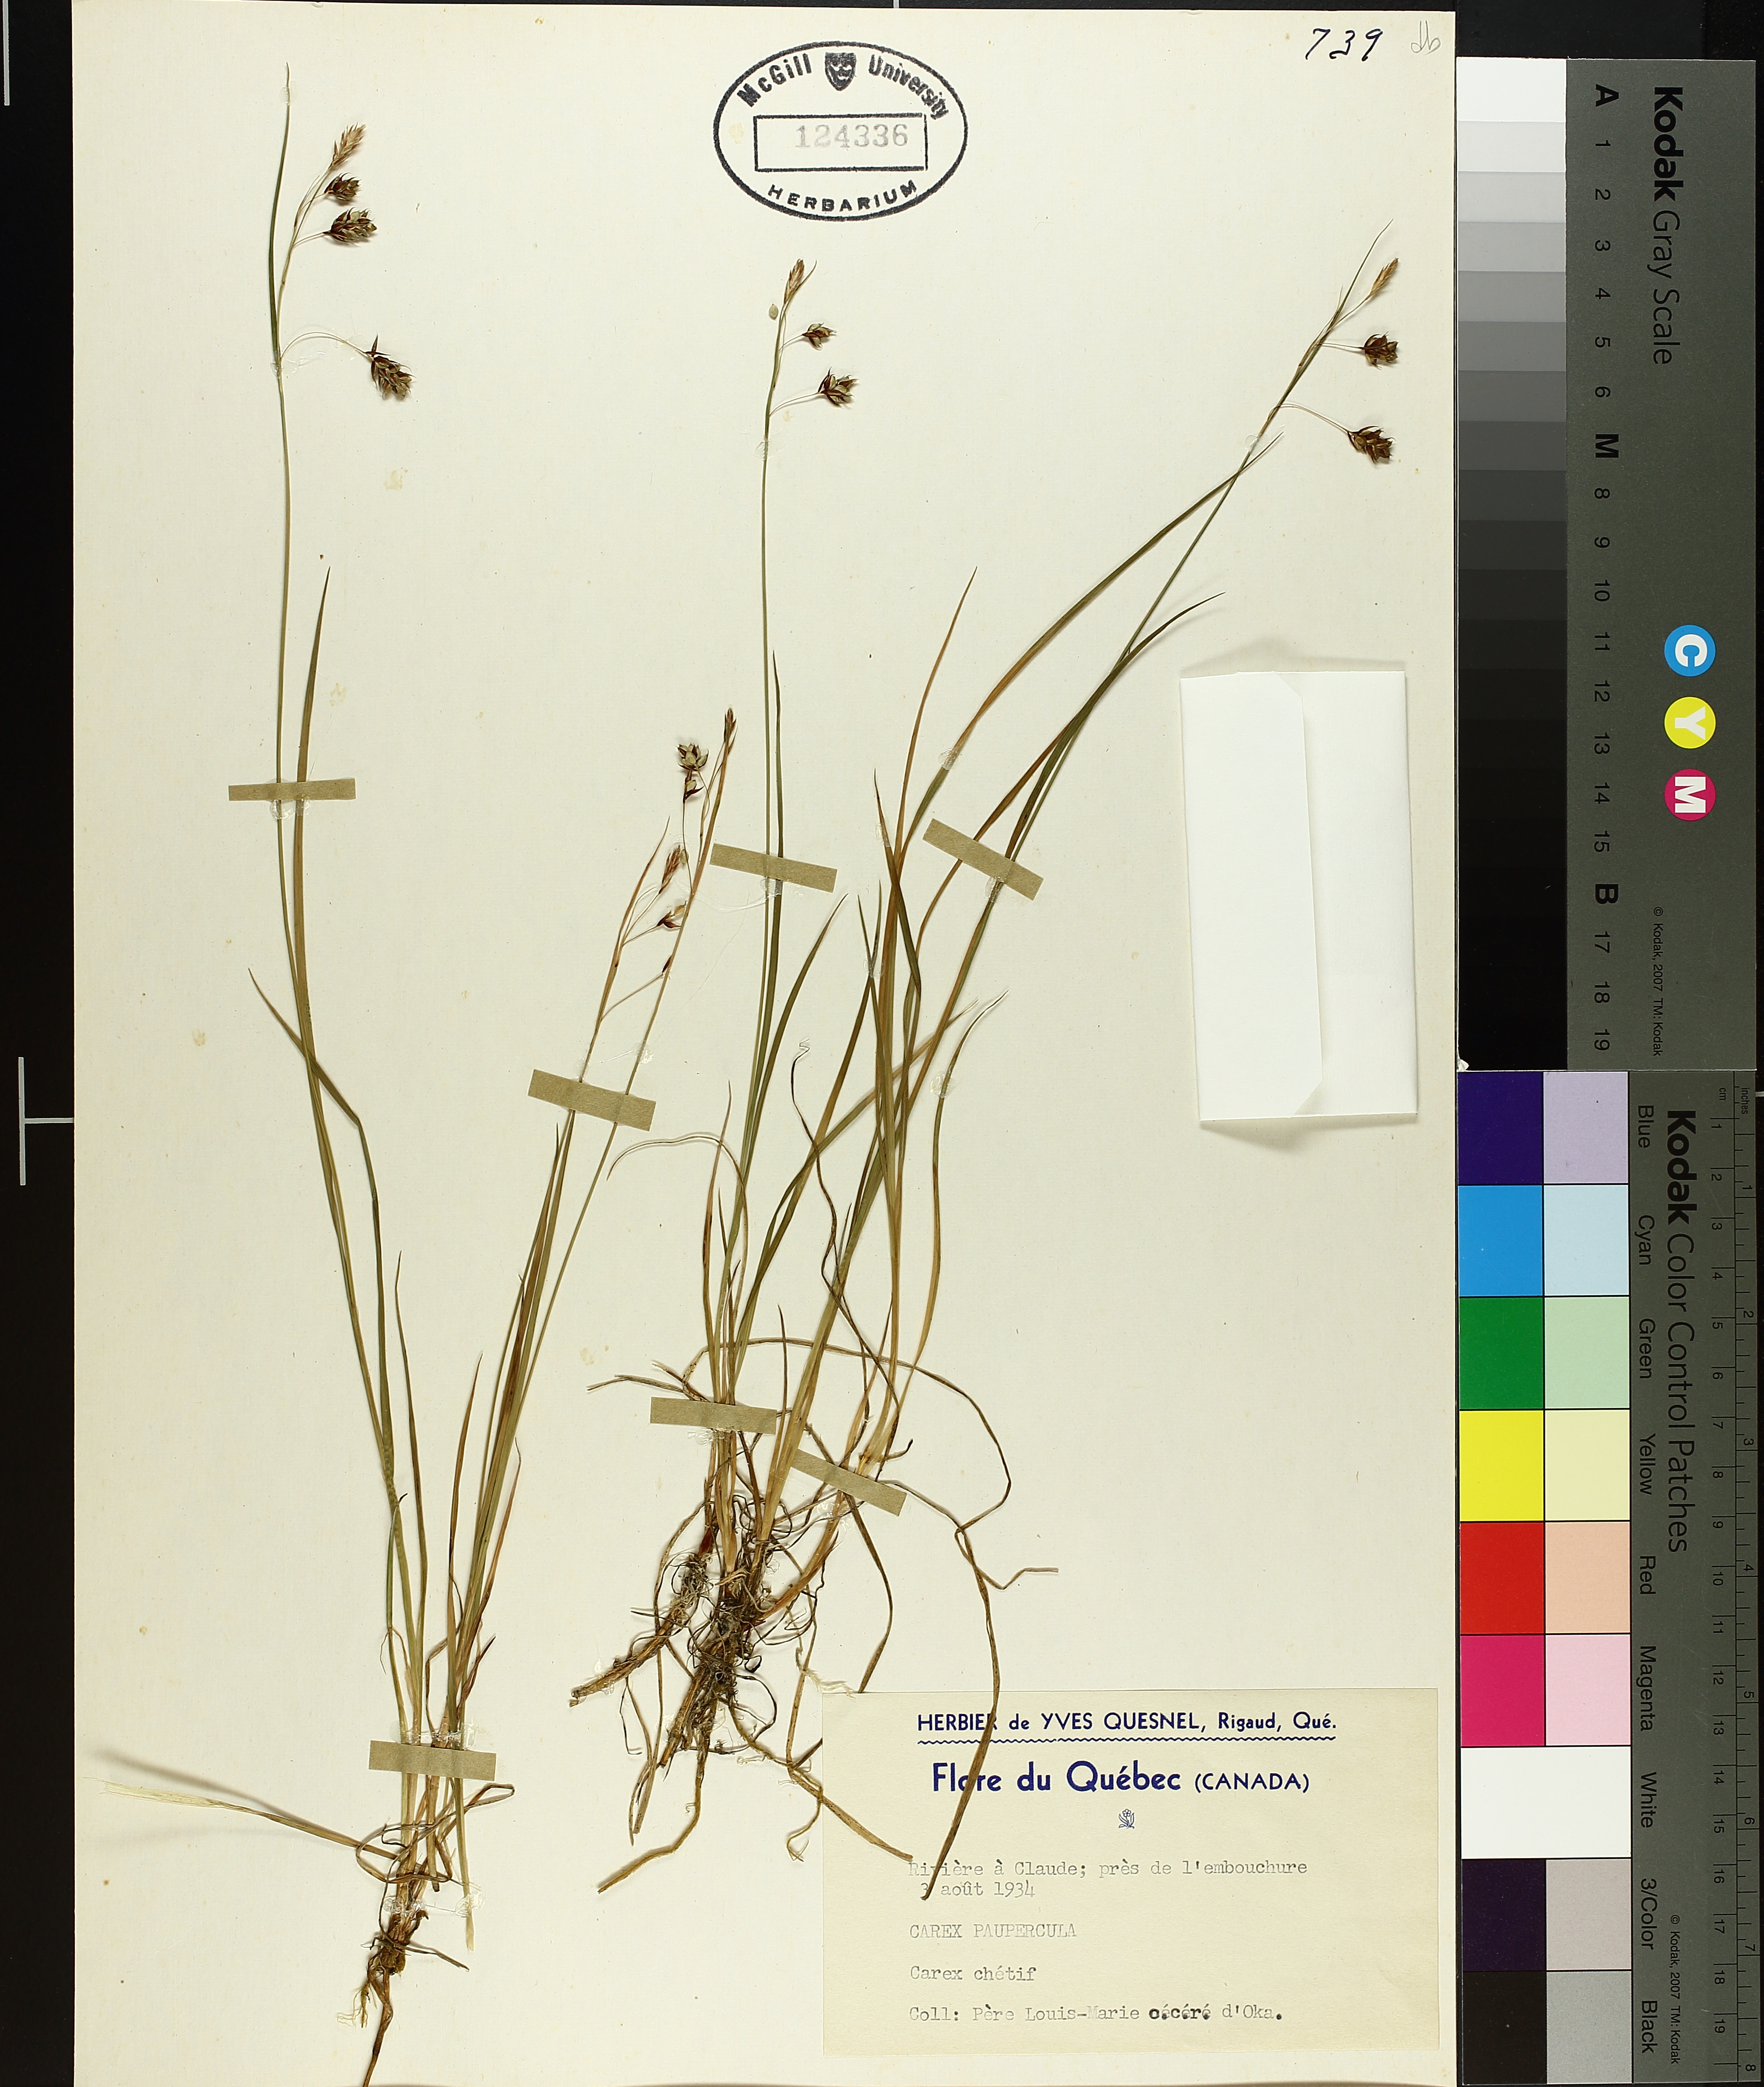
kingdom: Plantae
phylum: Tracheophyta
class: Liliopsida
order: Poales
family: Cyperaceae
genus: Carex
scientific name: Carex magellanica
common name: Bog sedge
